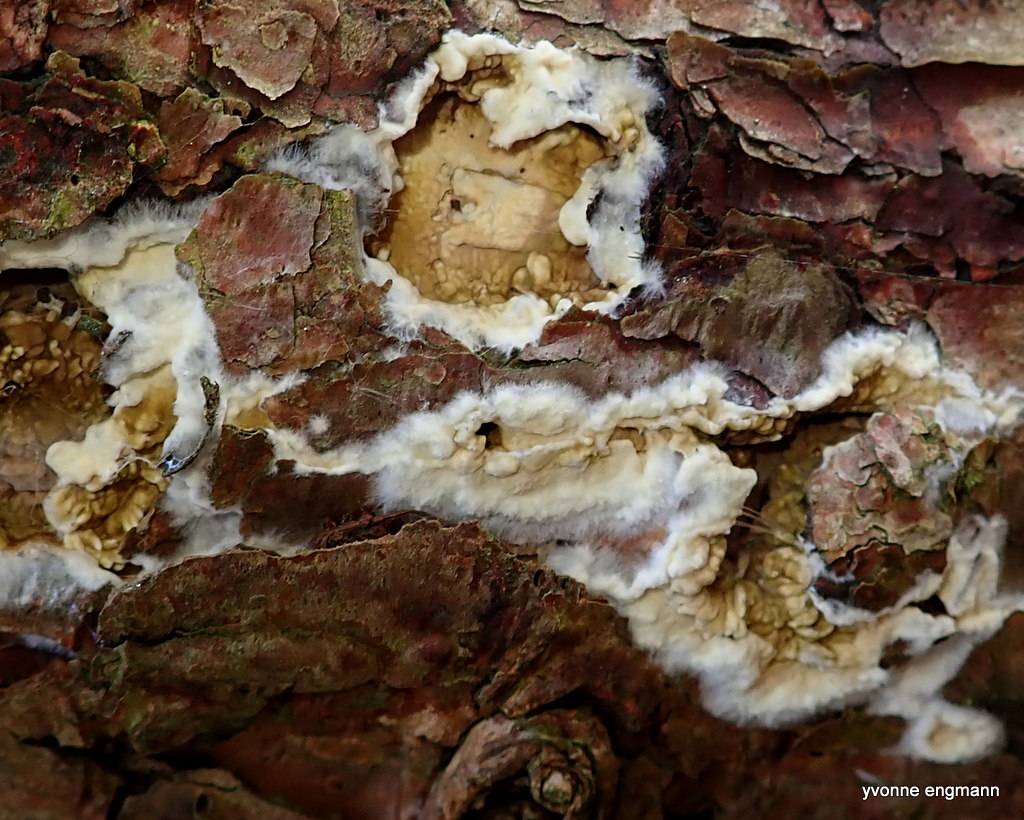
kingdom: Fungi
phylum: Basidiomycota
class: Agaricomycetes
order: Boletales
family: Coniophoraceae
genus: Coniophora
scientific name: Coniophora puteana
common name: gul tømmersvamp
